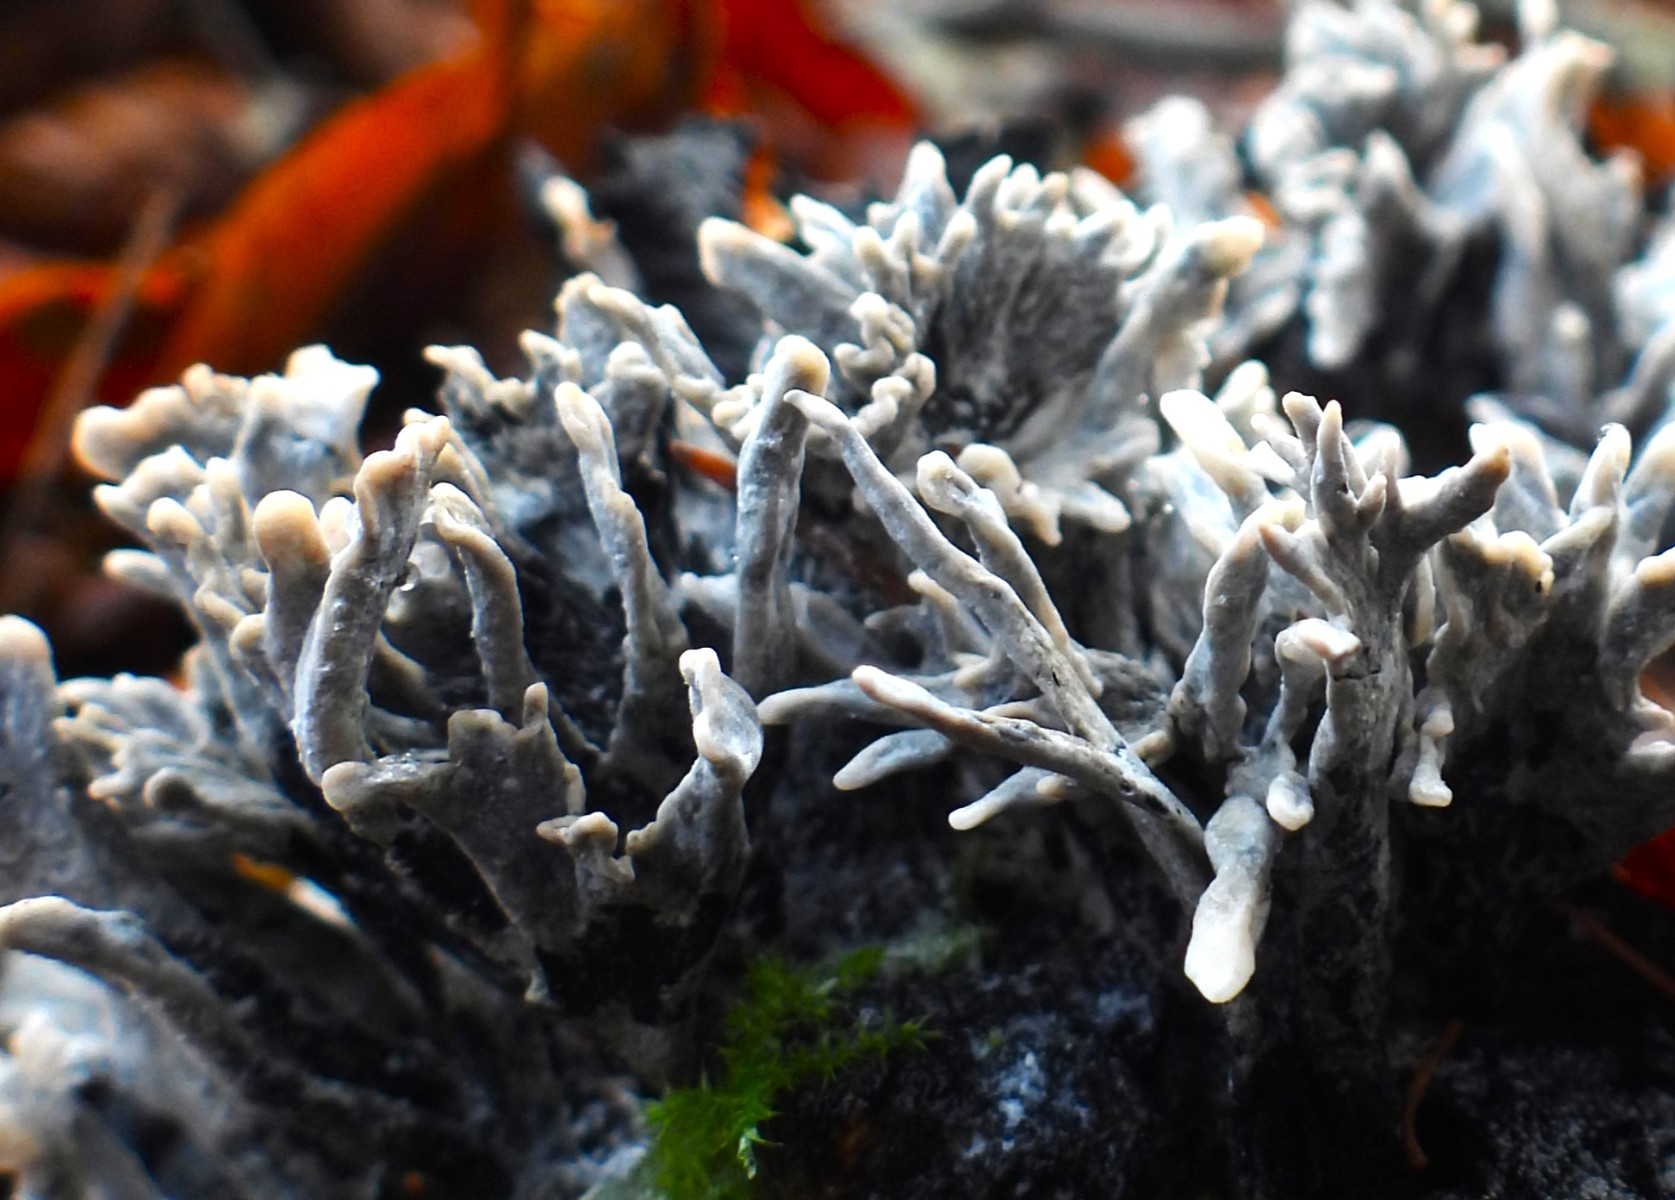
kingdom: Fungi
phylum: Ascomycota
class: Sordariomycetes
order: Xylariales
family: Xylariaceae
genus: Xylaria
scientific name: Xylaria hypoxylon
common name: grenet stødsvamp
